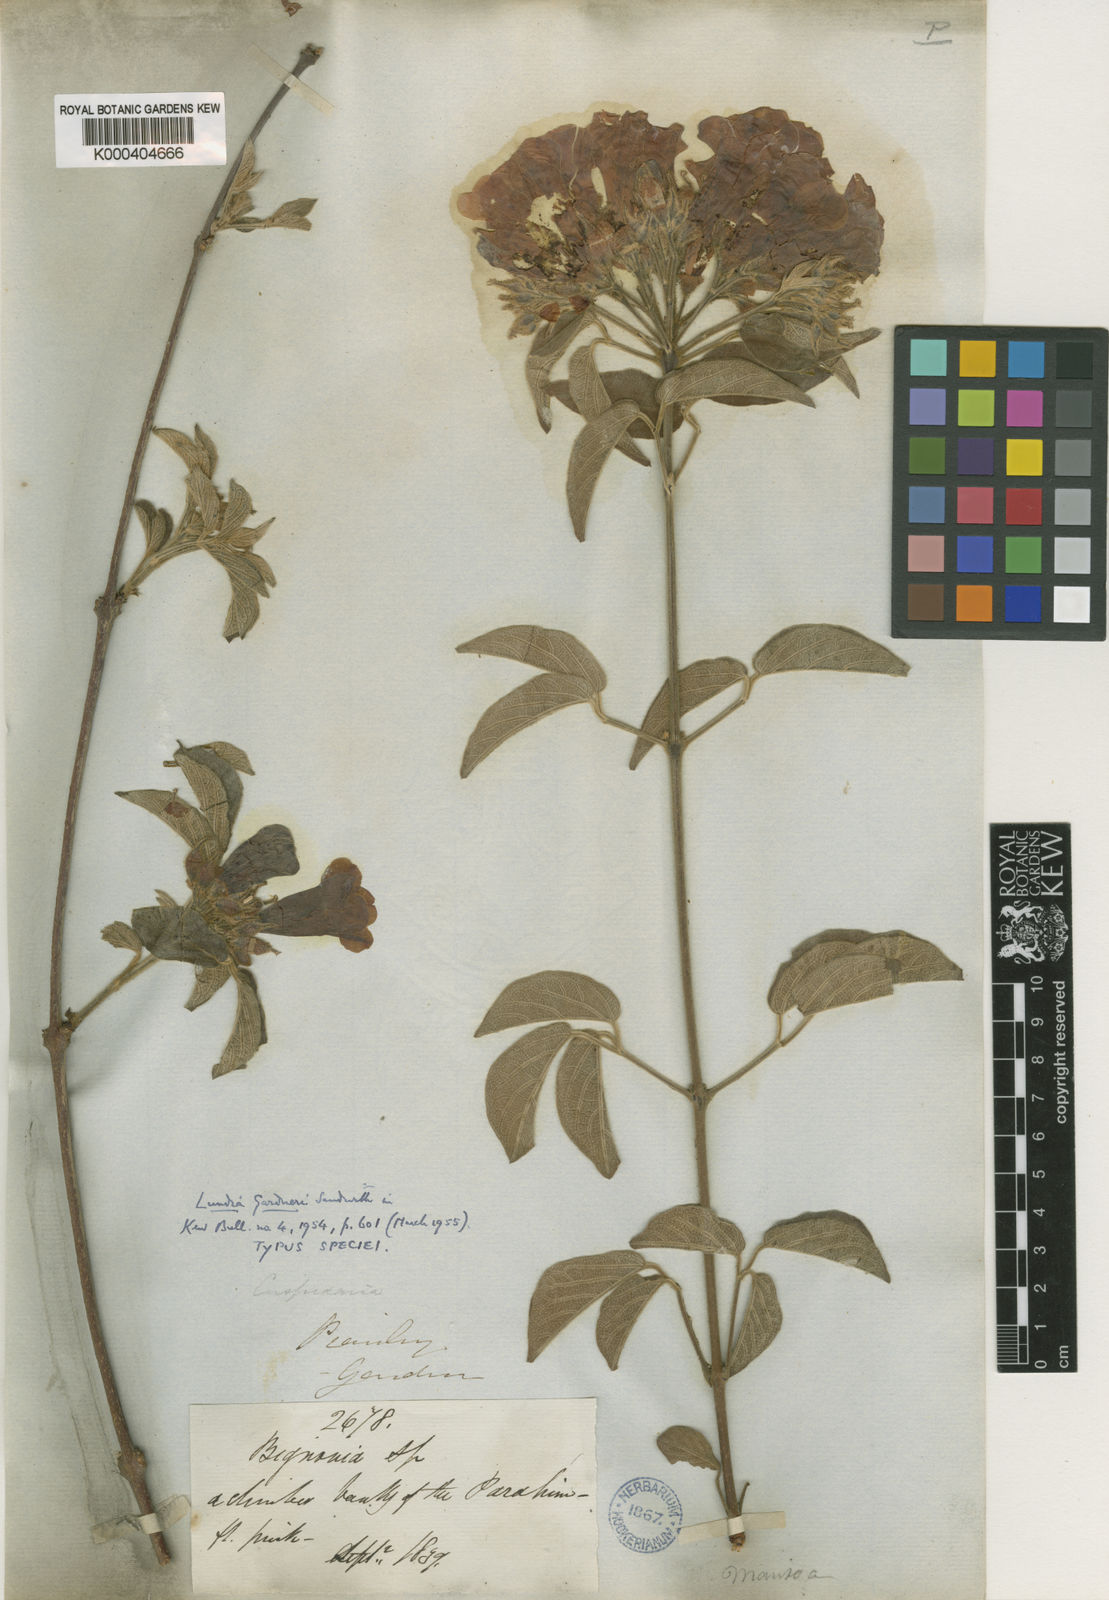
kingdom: Plantae
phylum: Tracheophyta
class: Magnoliopsida
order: Lamiales
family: Bignoniaceae
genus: Lundia
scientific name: Lundia gardneri
